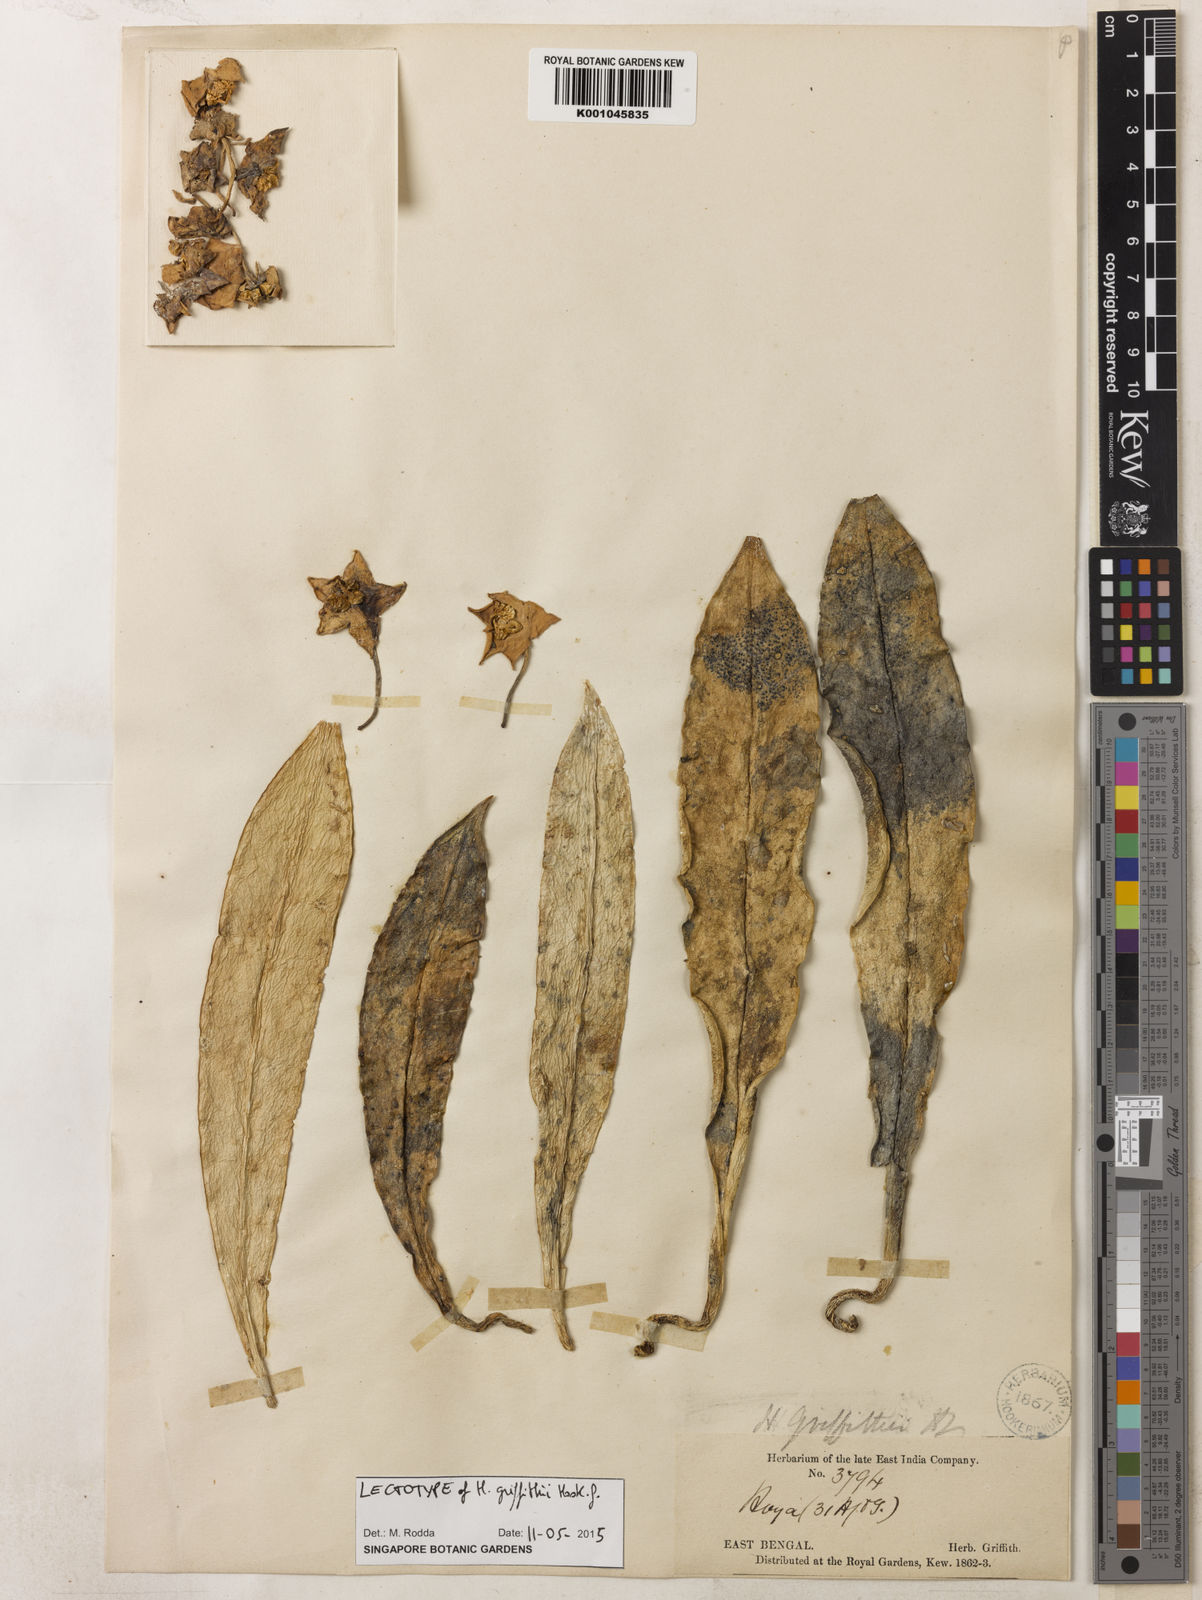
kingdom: Plantae
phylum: Tracheophyta
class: Magnoliopsida
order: Gentianales
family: Apocynaceae
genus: Hoya
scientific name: Hoya griffithii
